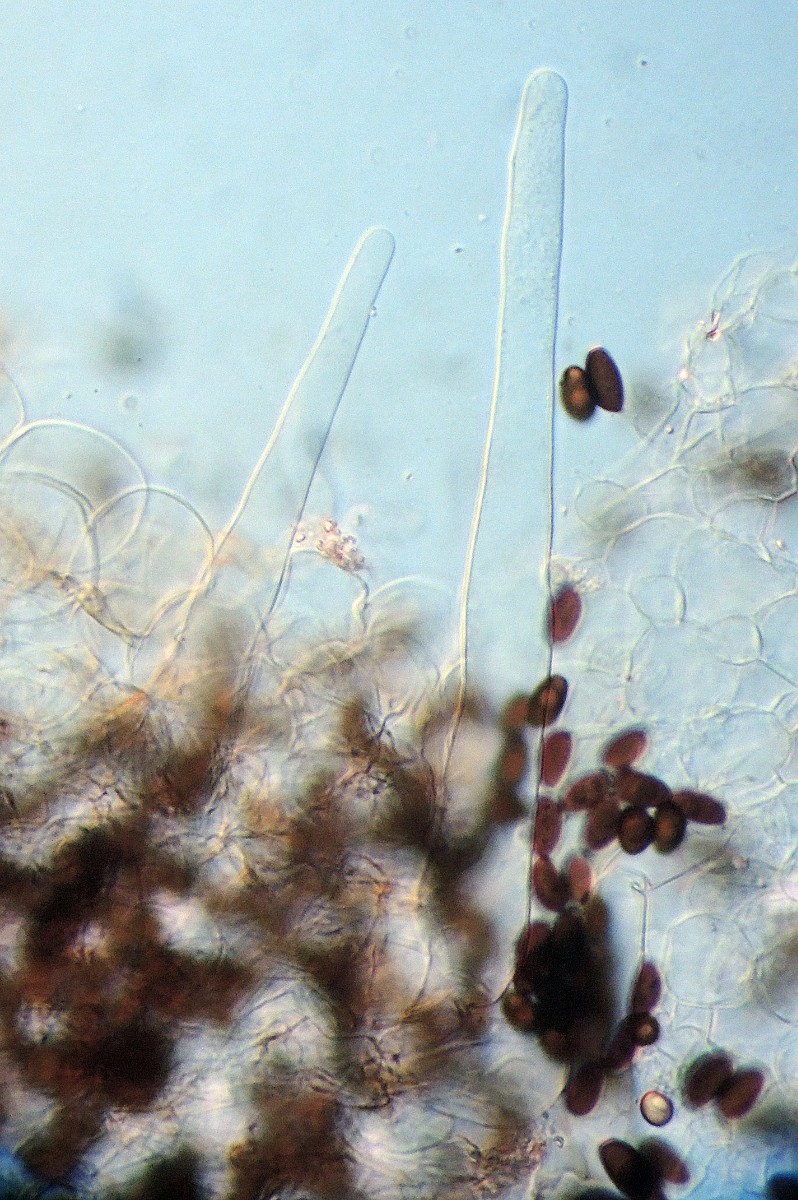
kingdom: Fungi
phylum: Basidiomycota
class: Agaricomycetes
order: Agaricales
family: Psathyrellaceae
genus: Coprinellus
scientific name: Coprinellus
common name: blækhat
